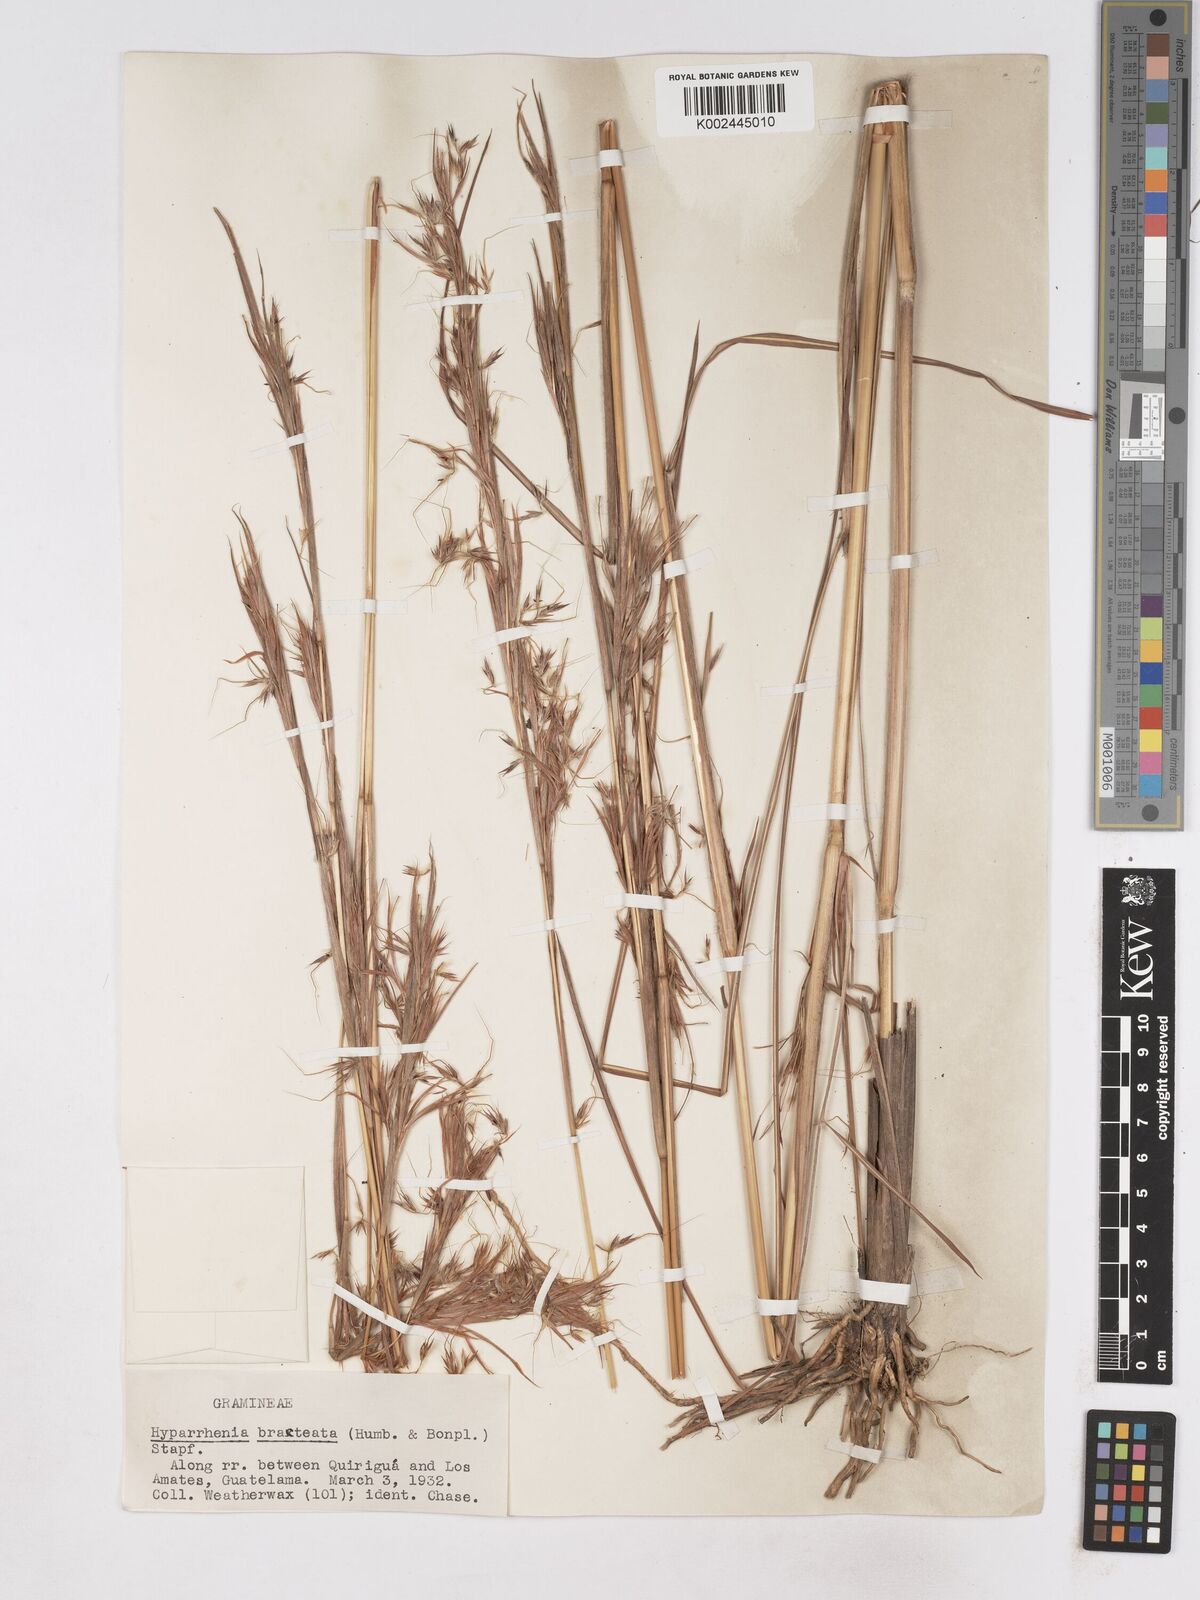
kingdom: Plantae
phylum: Tracheophyta
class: Liliopsida
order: Poales
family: Poaceae
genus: Hyparrhenia
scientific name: Hyparrhenia bracteata
